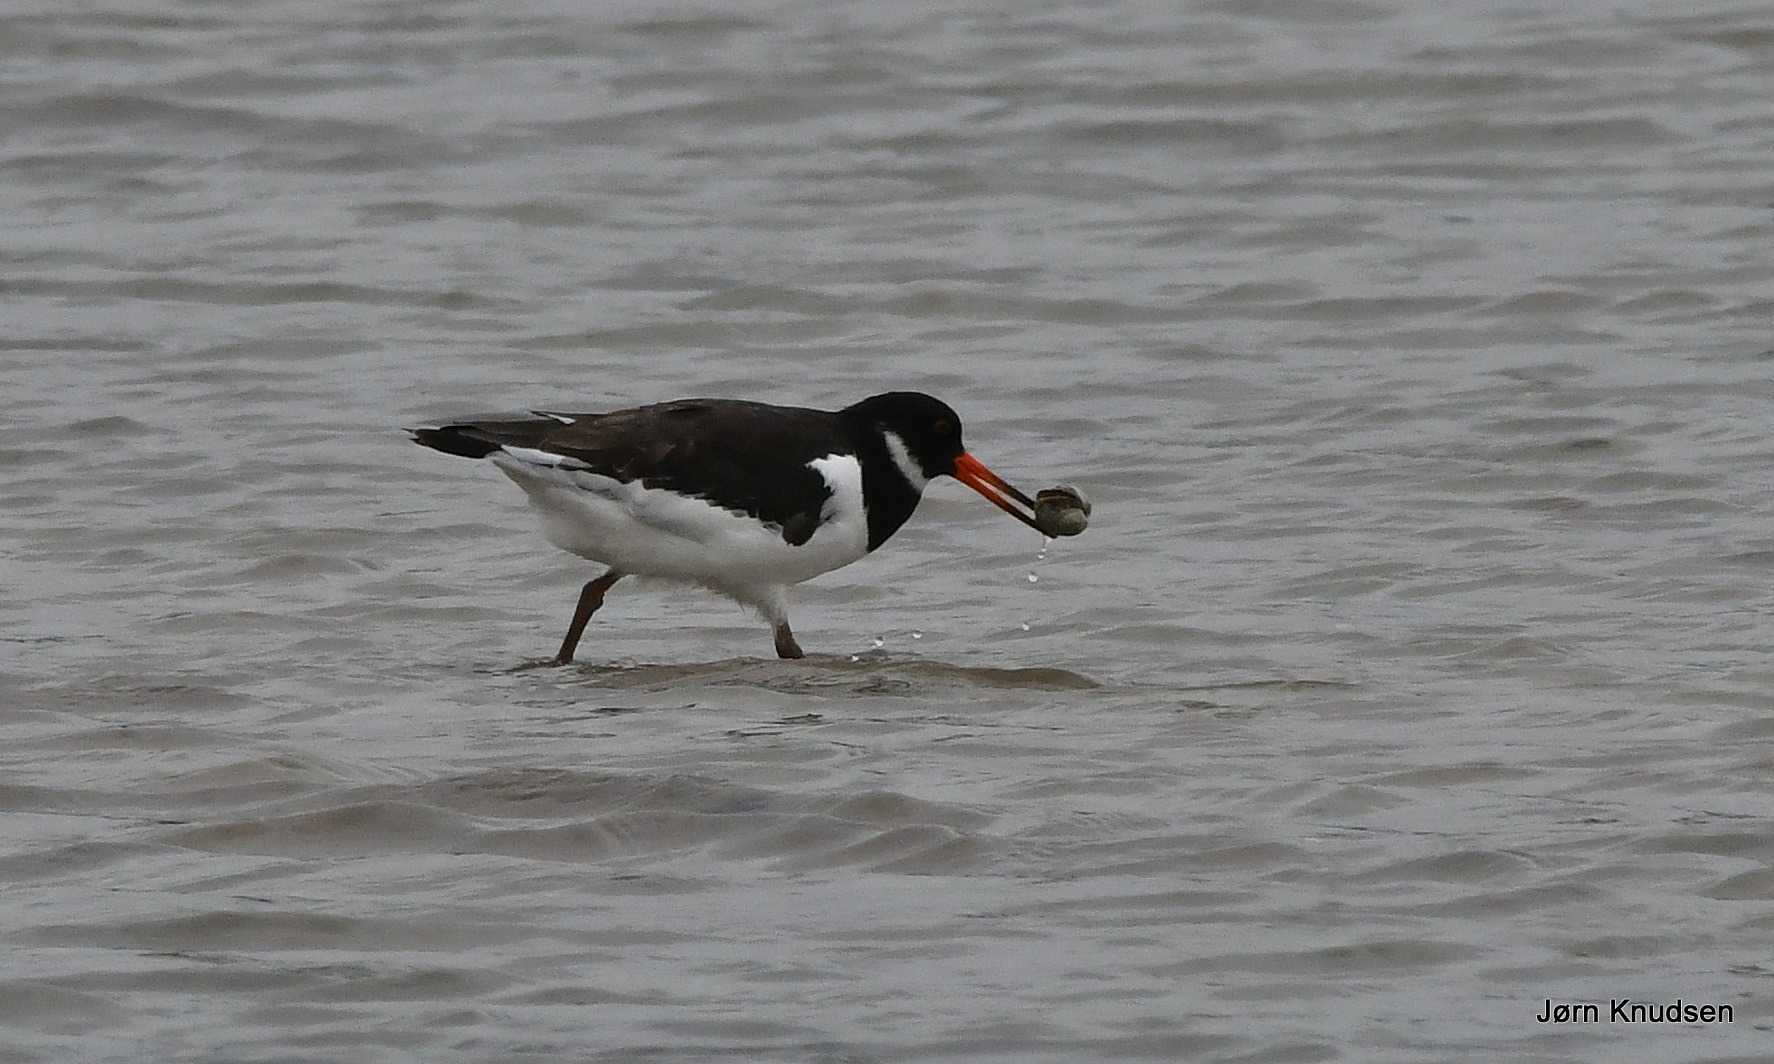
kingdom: Animalia
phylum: Chordata
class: Aves
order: Charadriiformes
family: Haematopodidae
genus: Haematopus
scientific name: Haematopus ostralegus
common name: Strandskade
